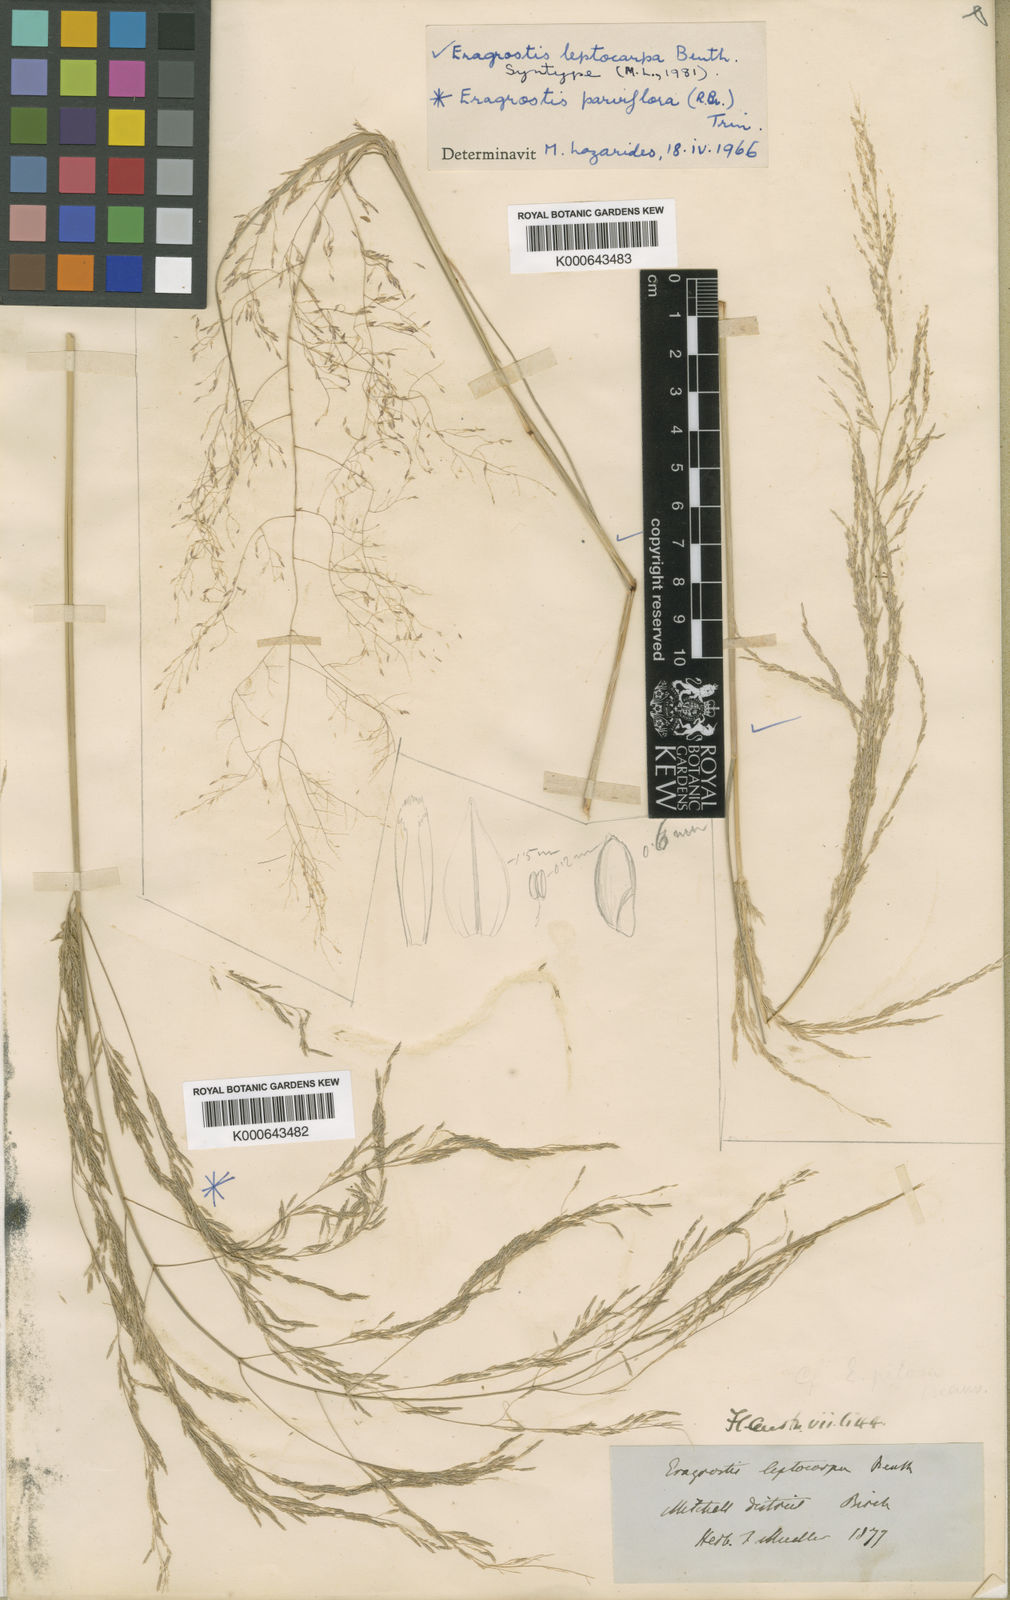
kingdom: Plantae
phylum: Tracheophyta
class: Liliopsida
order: Poales
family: Poaceae
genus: Eragrostis
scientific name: Eragrostis leptocarpa
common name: Drooping love grass
